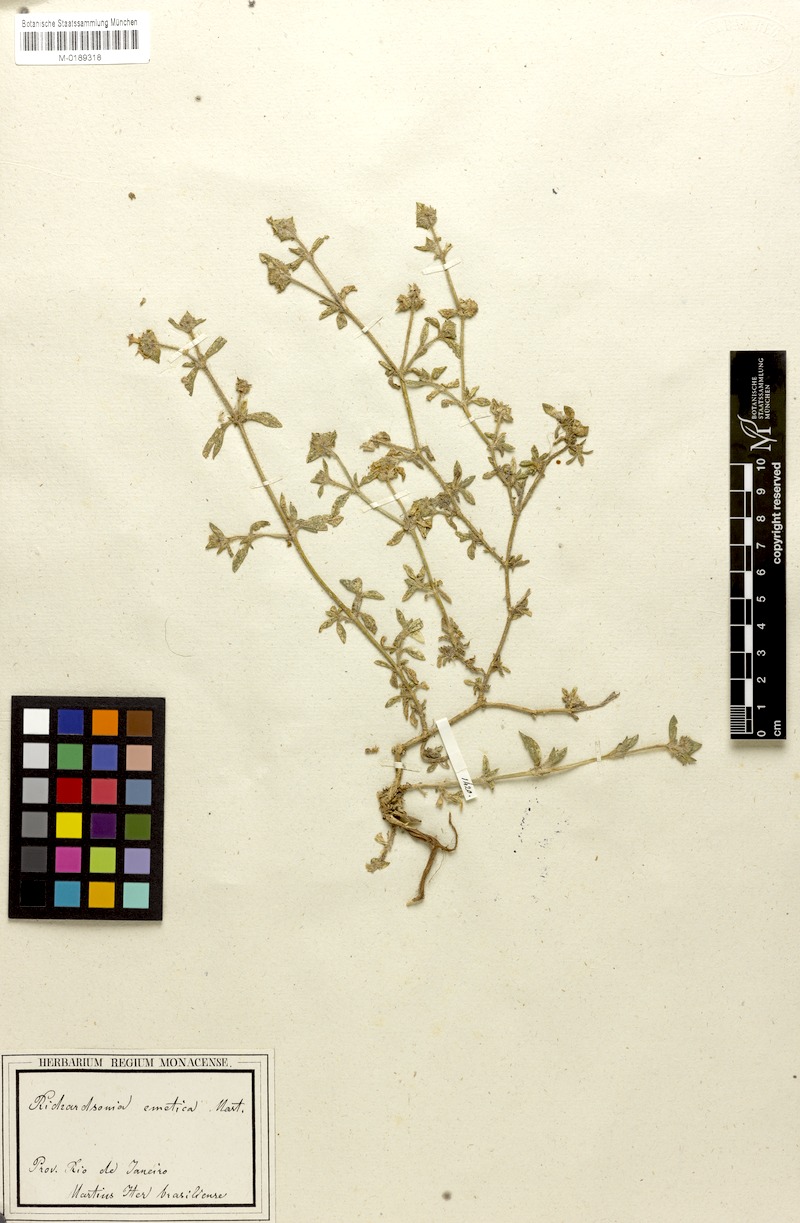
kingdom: Plantae
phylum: Tracheophyta
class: Magnoliopsida
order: Gentianales
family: Rubiaceae
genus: Richardia
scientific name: Richardia brasiliensis
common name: Tropical mexican clover
